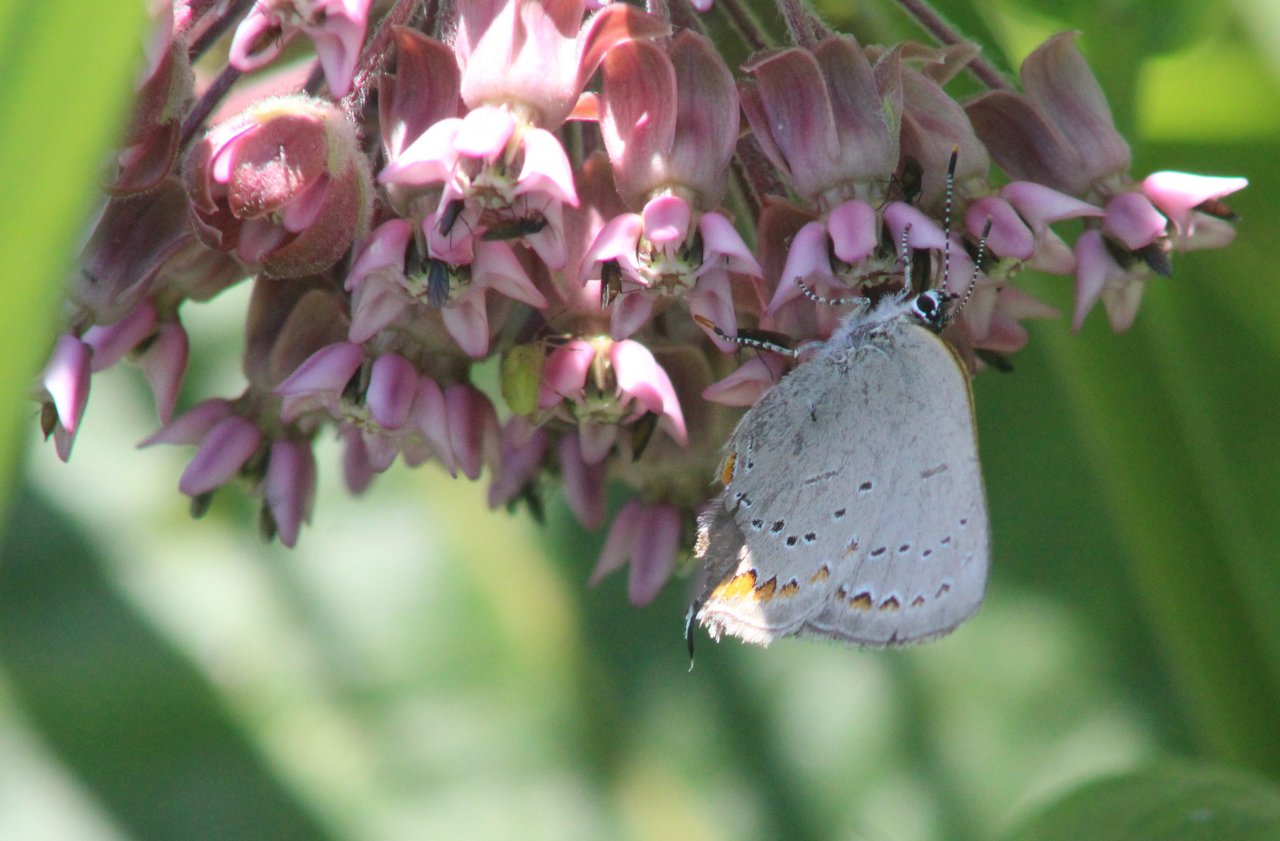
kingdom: Animalia
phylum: Arthropoda
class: Insecta
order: Lepidoptera
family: Lycaenidae
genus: Strymon
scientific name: Strymon acadica
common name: Acadian Hairstreak
